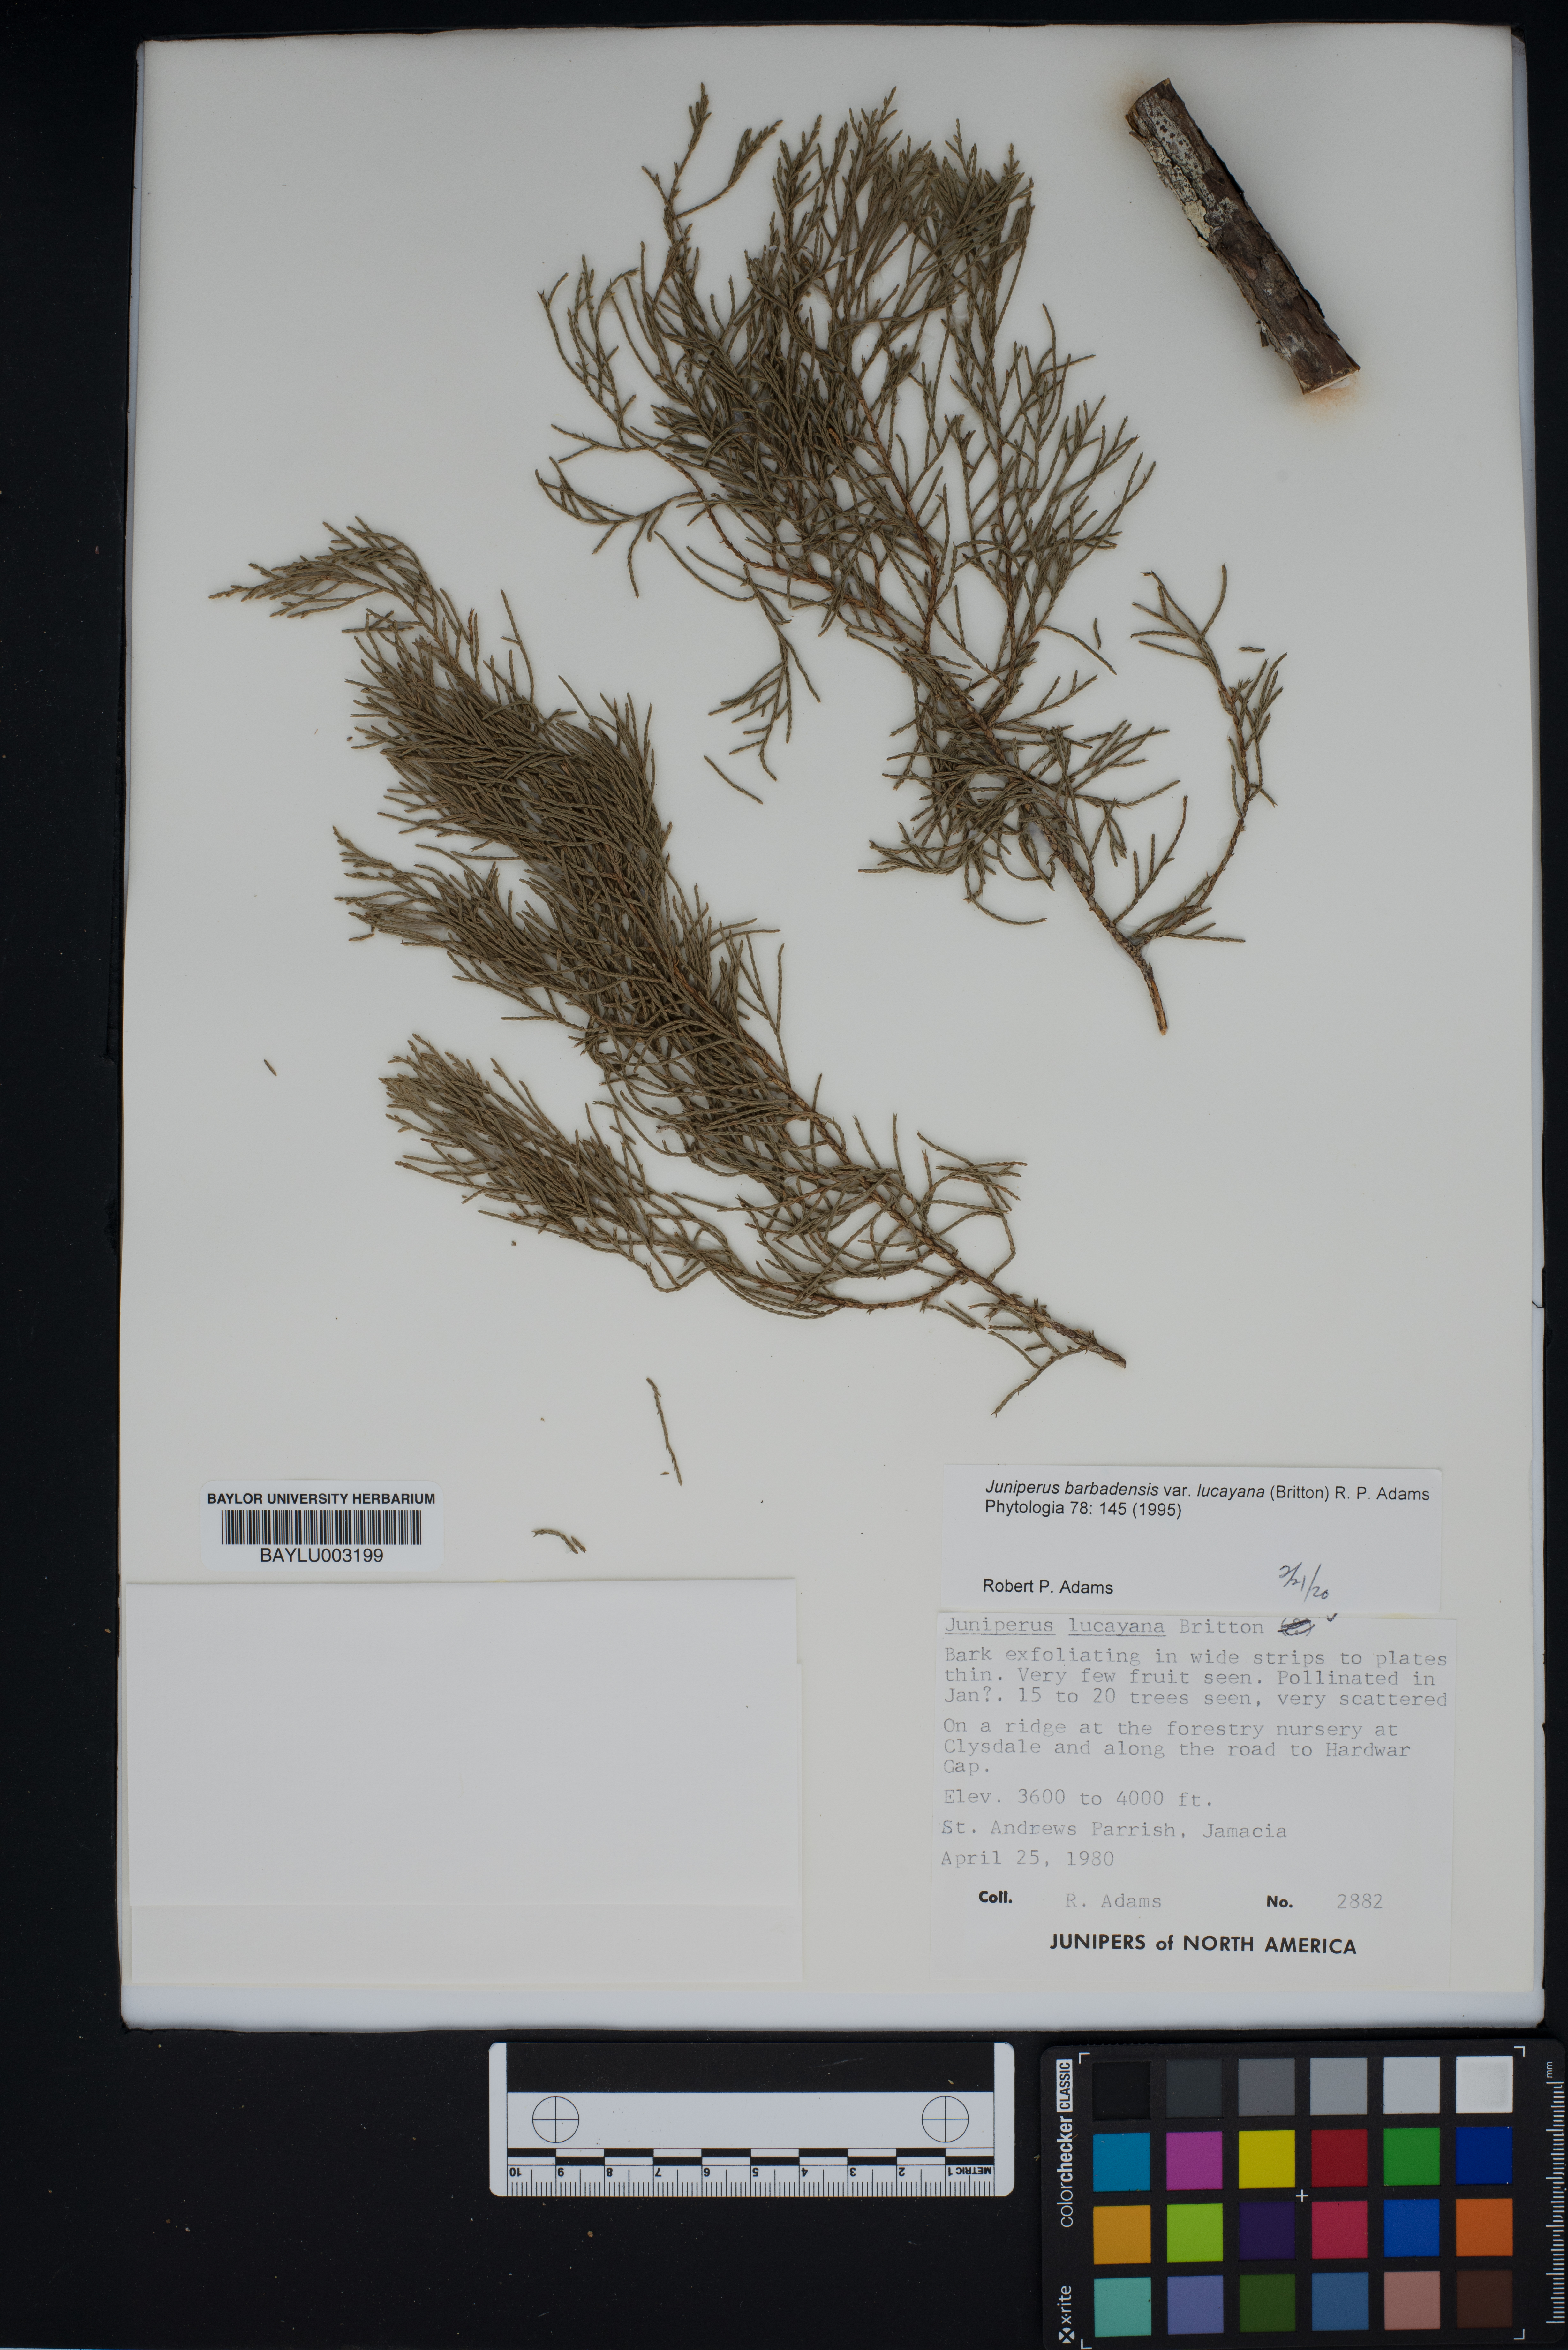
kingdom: Plantae
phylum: Tracheophyta
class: Pinopsida
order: Pinales
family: Cupressaceae
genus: Juniperus
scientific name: Juniperus barbadensis
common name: West indies juniper
